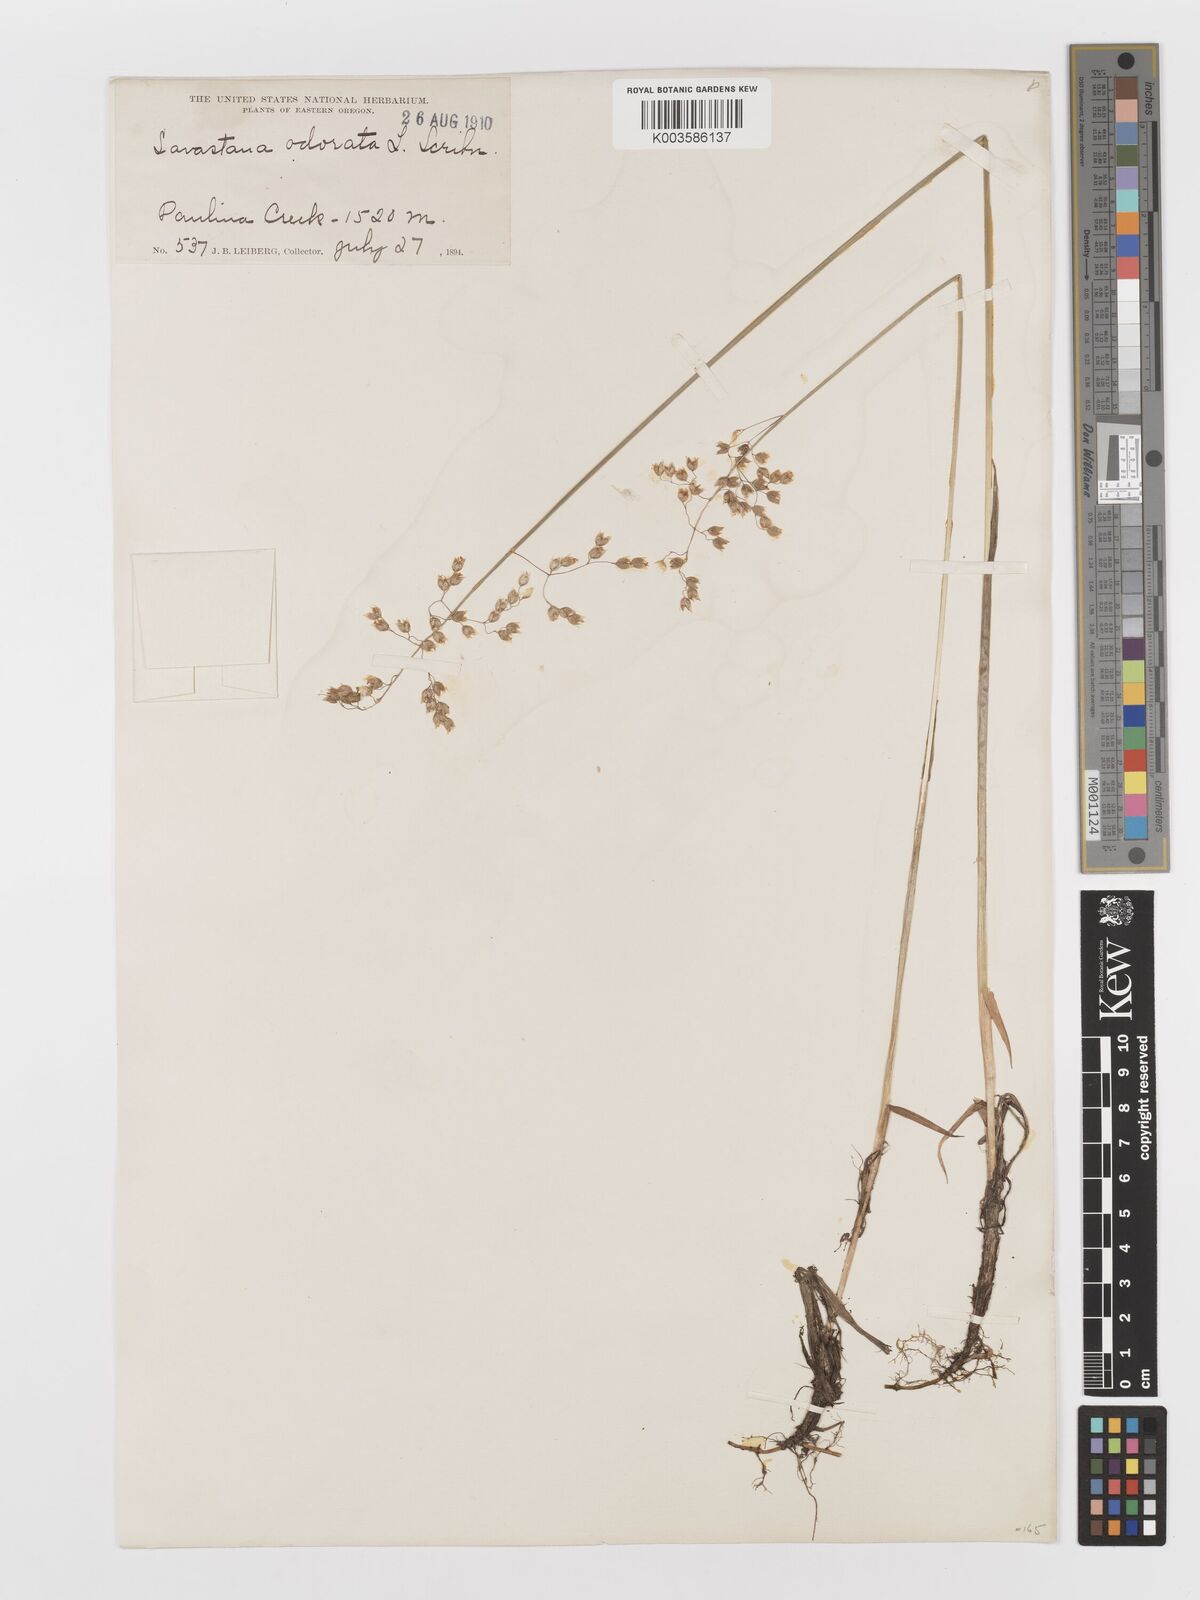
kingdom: Plantae
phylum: Tracheophyta
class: Liliopsida
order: Poales
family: Poaceae
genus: Anthoxanthum
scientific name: Anthoxanthum nitens
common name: Holy grass
